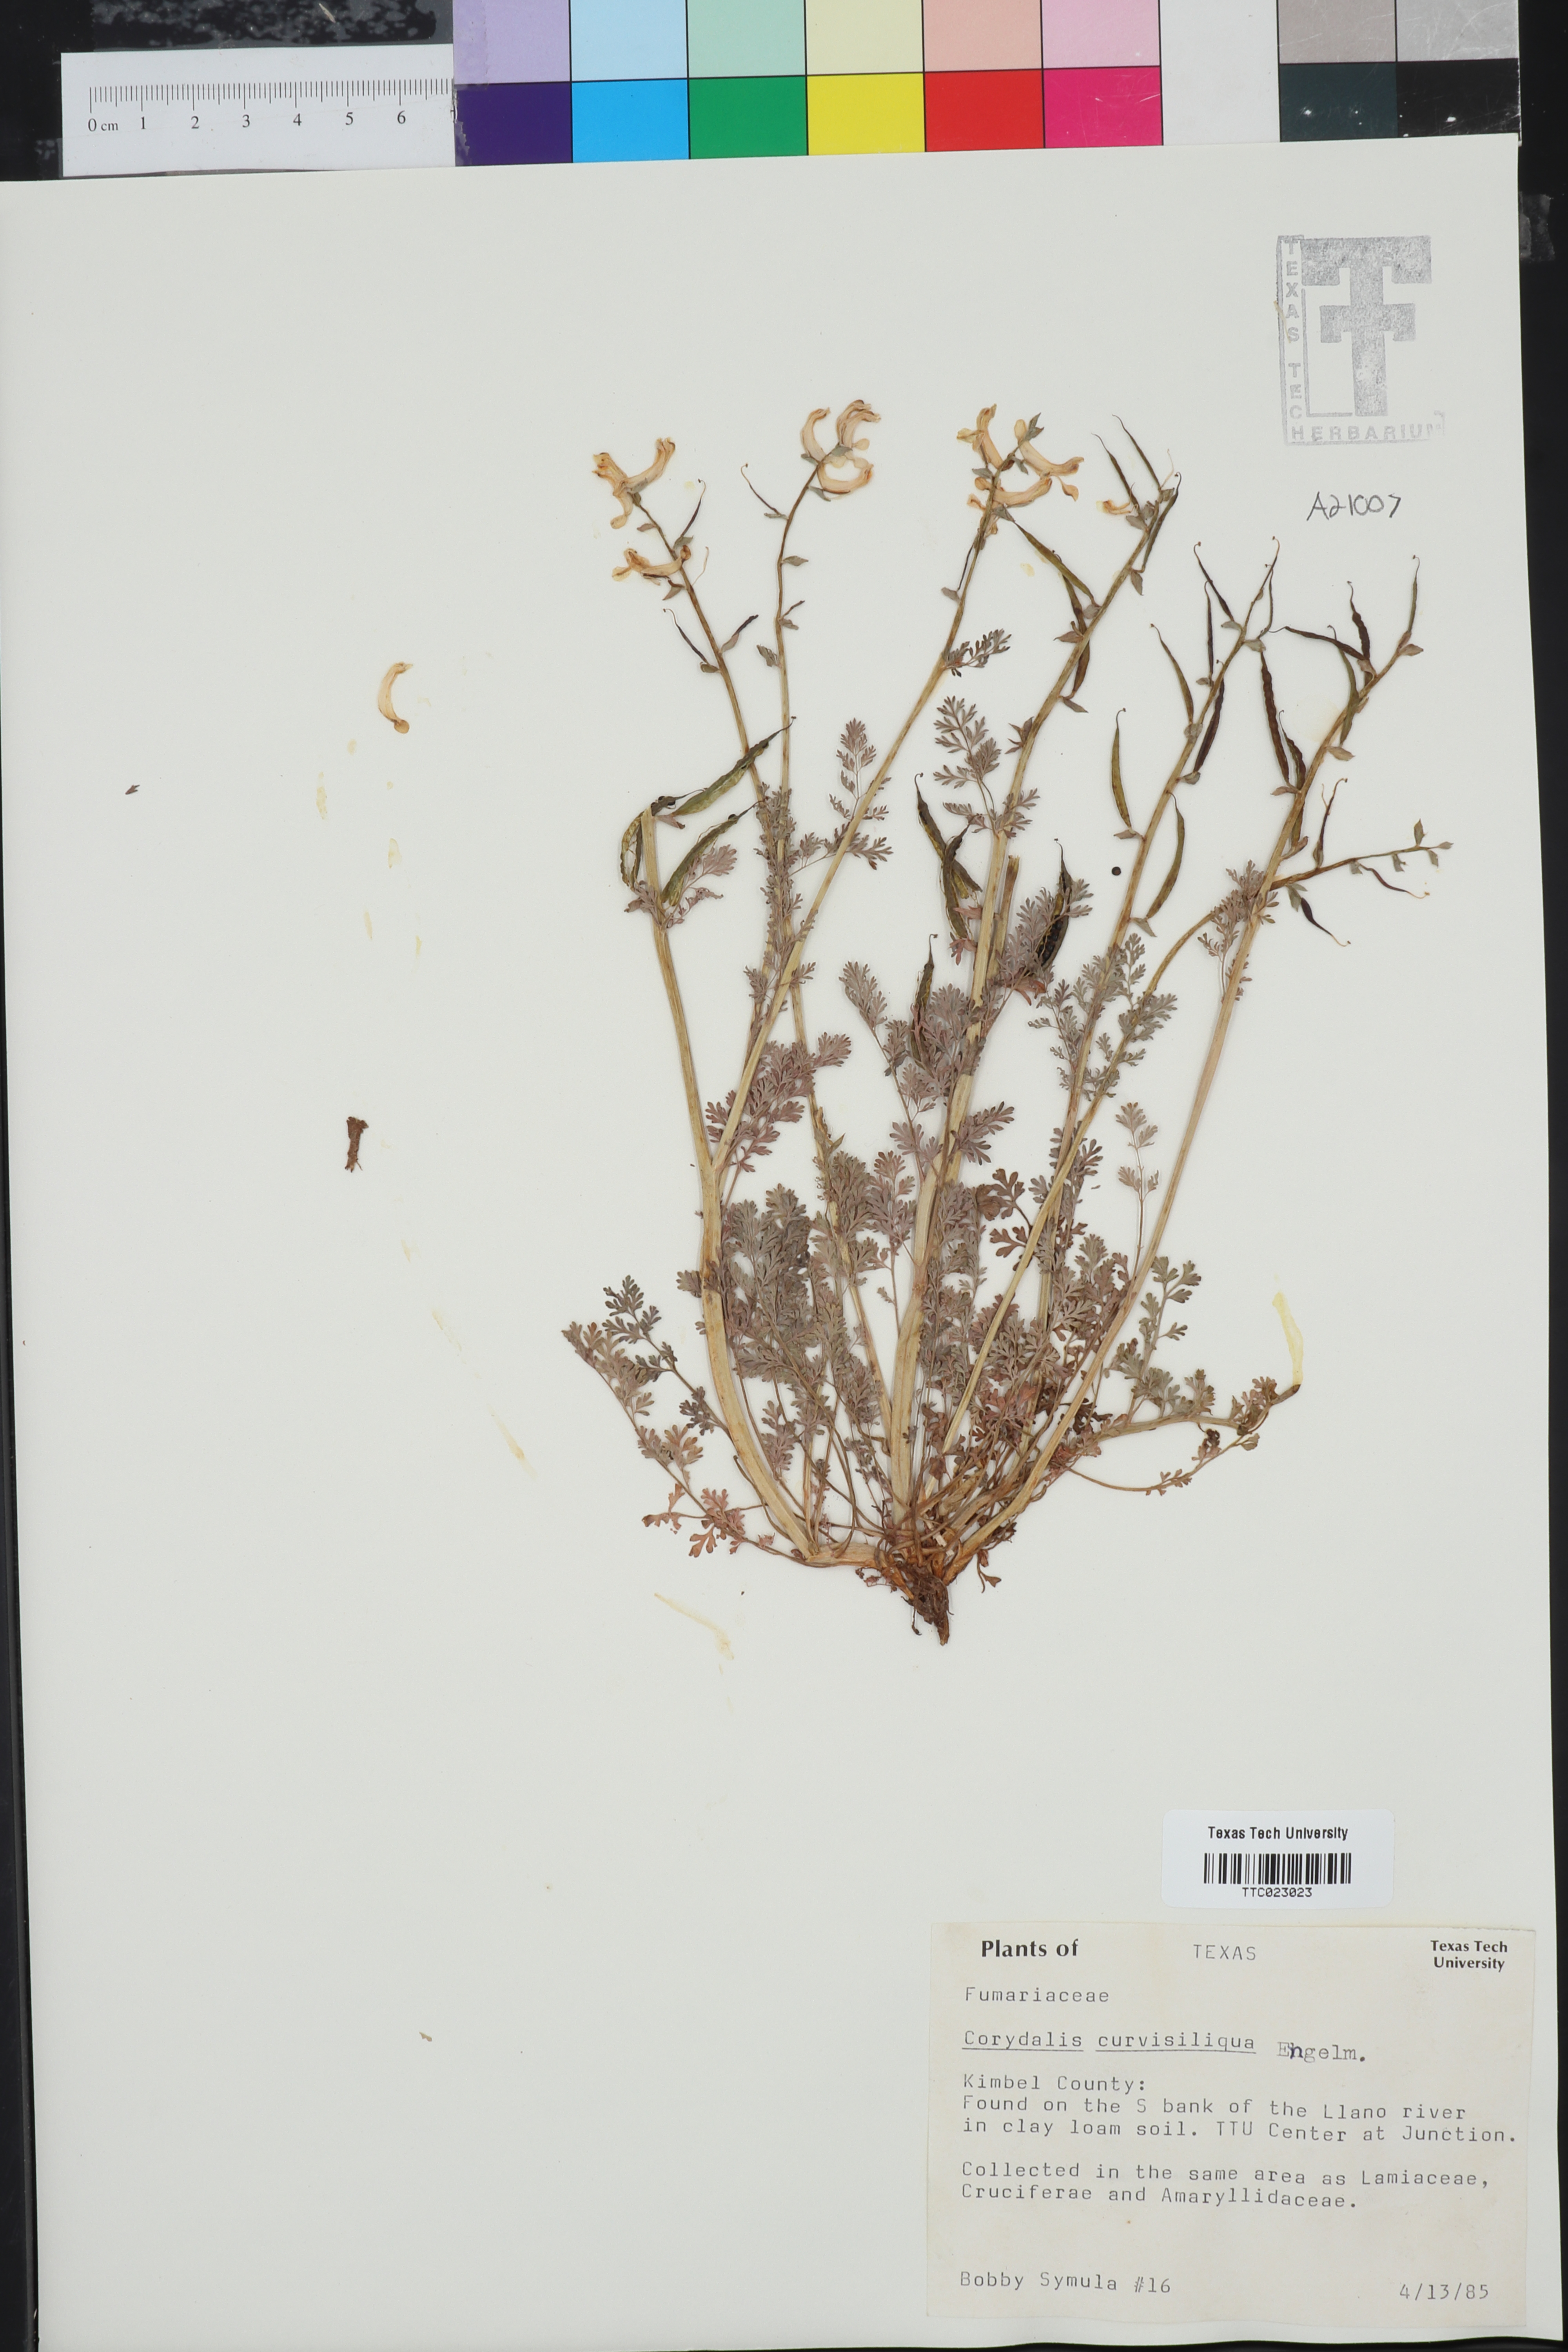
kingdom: Plantae
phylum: Tracheophyta
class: Magnoliopsida
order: Ranunculales
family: Papaveraceae
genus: Corydalis
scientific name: Corydalis curvisiliqua
